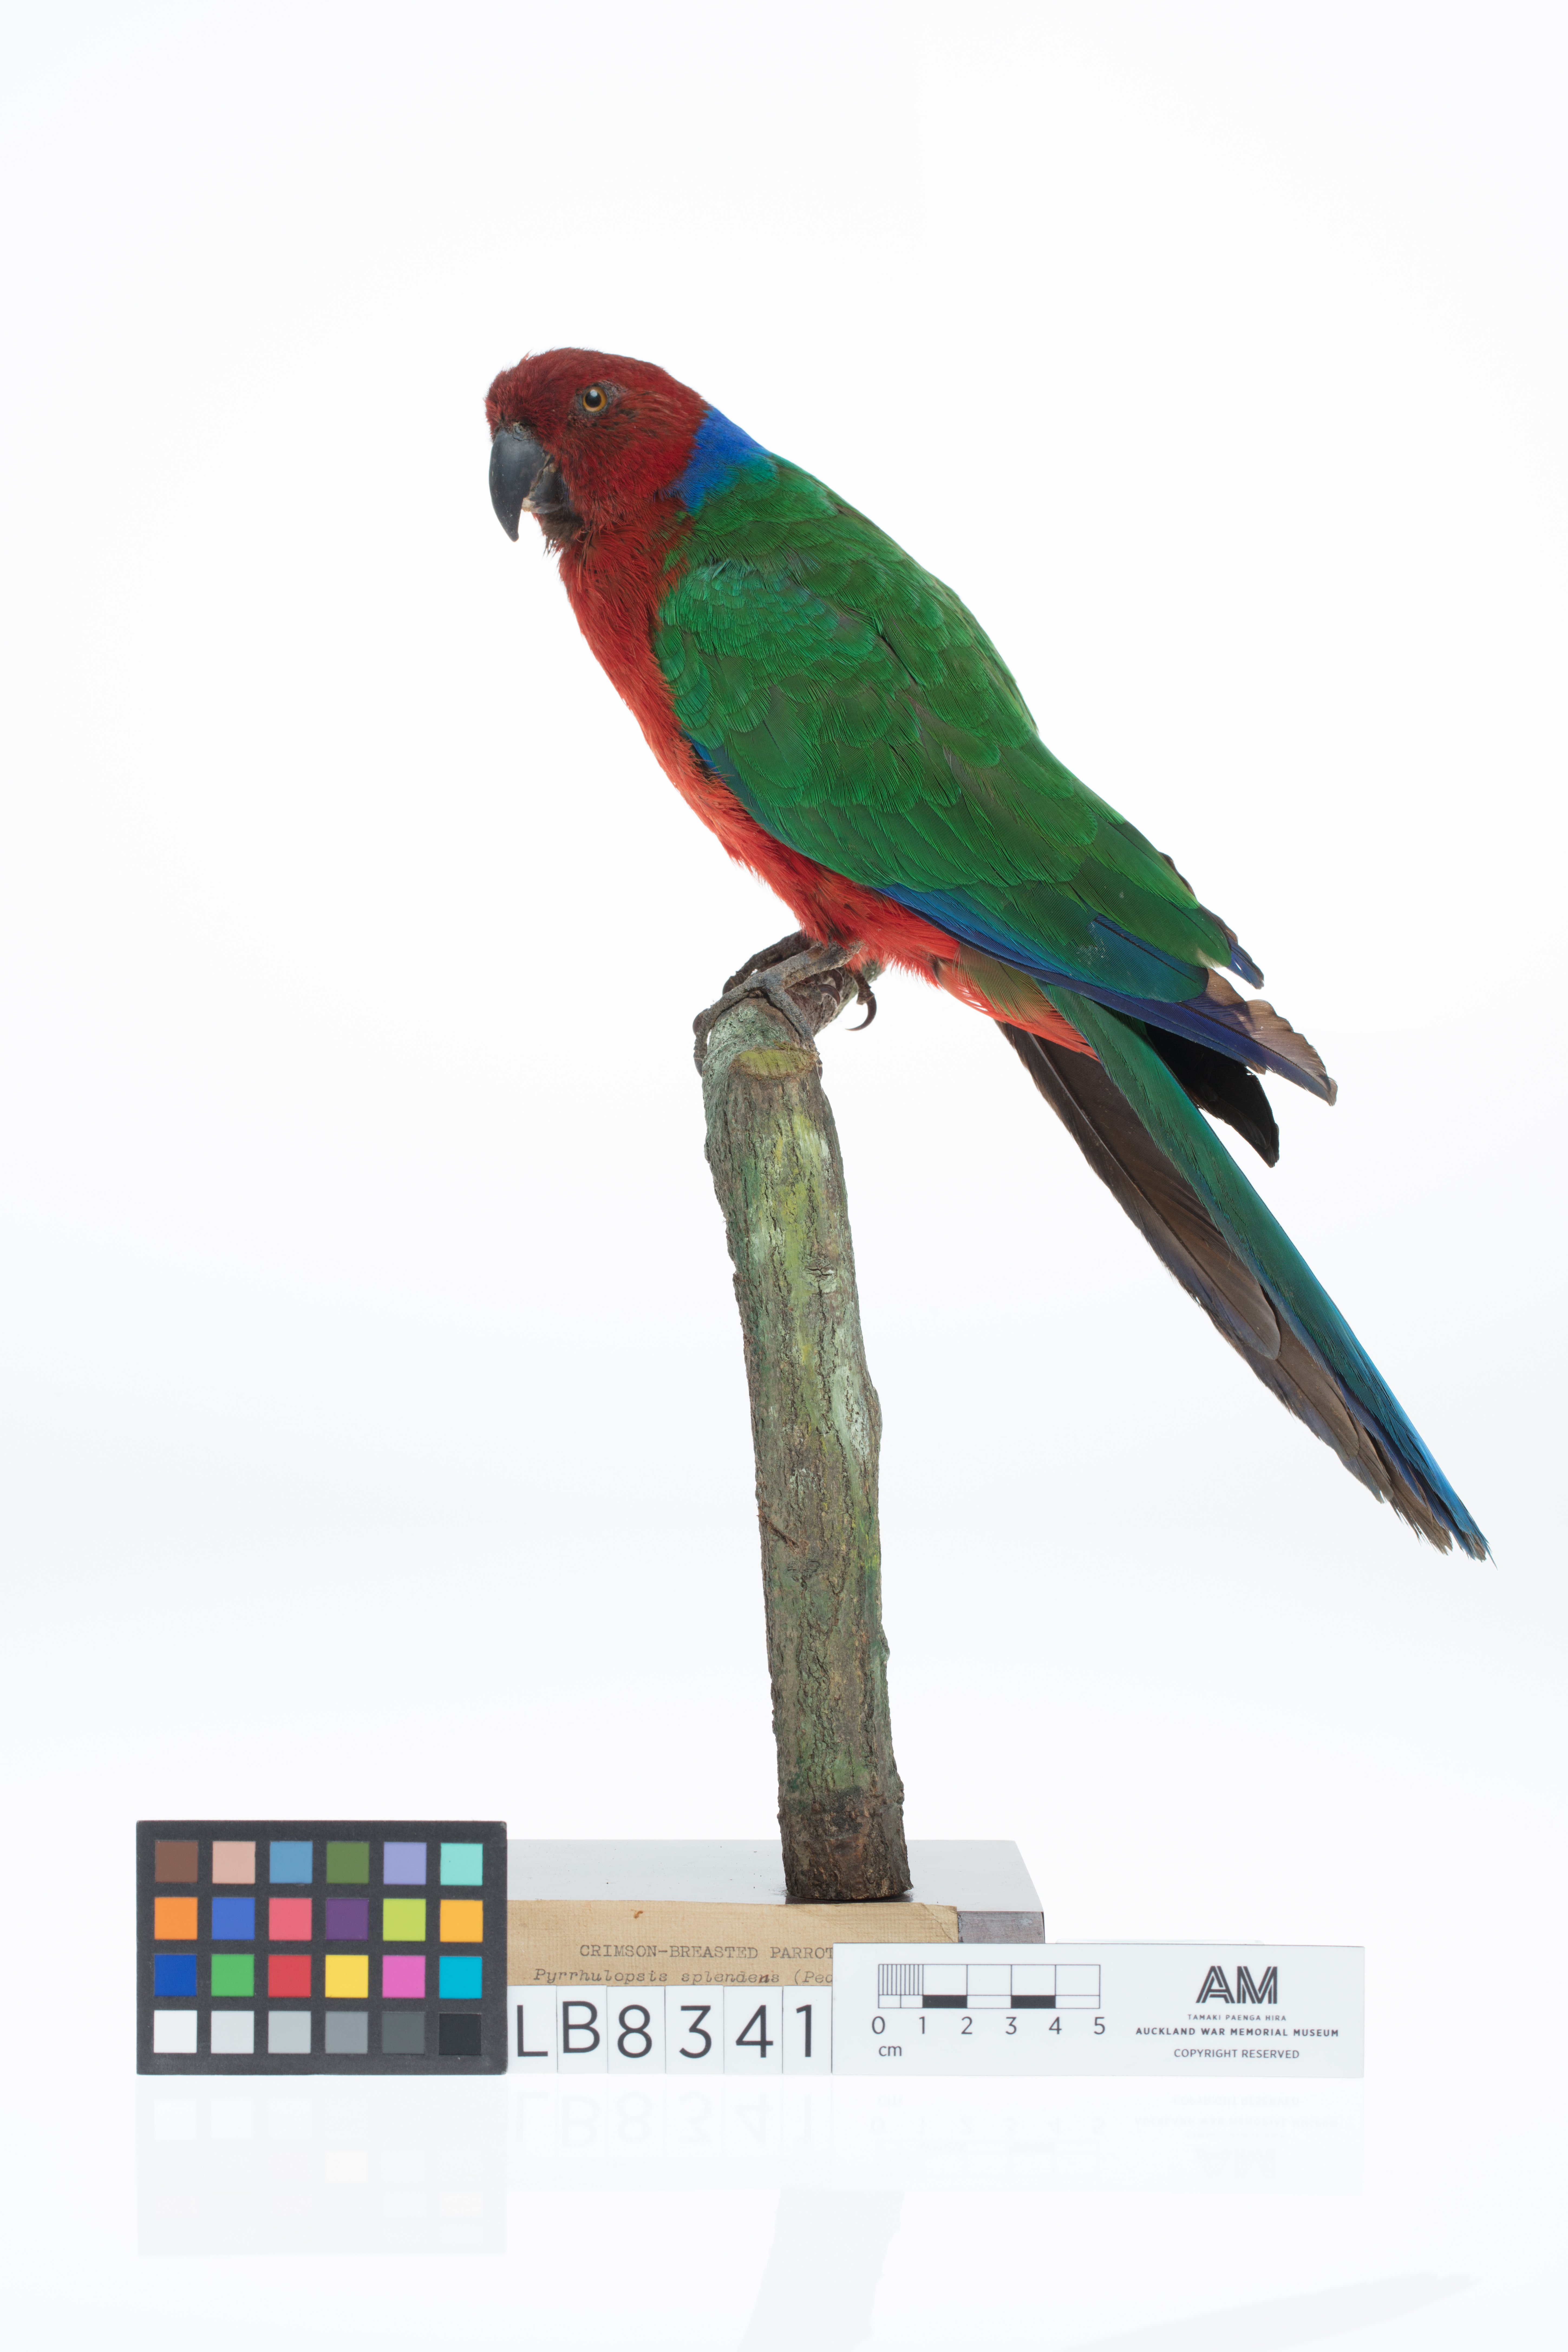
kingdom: Animalia
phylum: Chordata
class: Aves
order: Psittaciformes
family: Psittacidae
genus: Prosopeia
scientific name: Prosopeia splendens
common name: Crimson shining parrot
